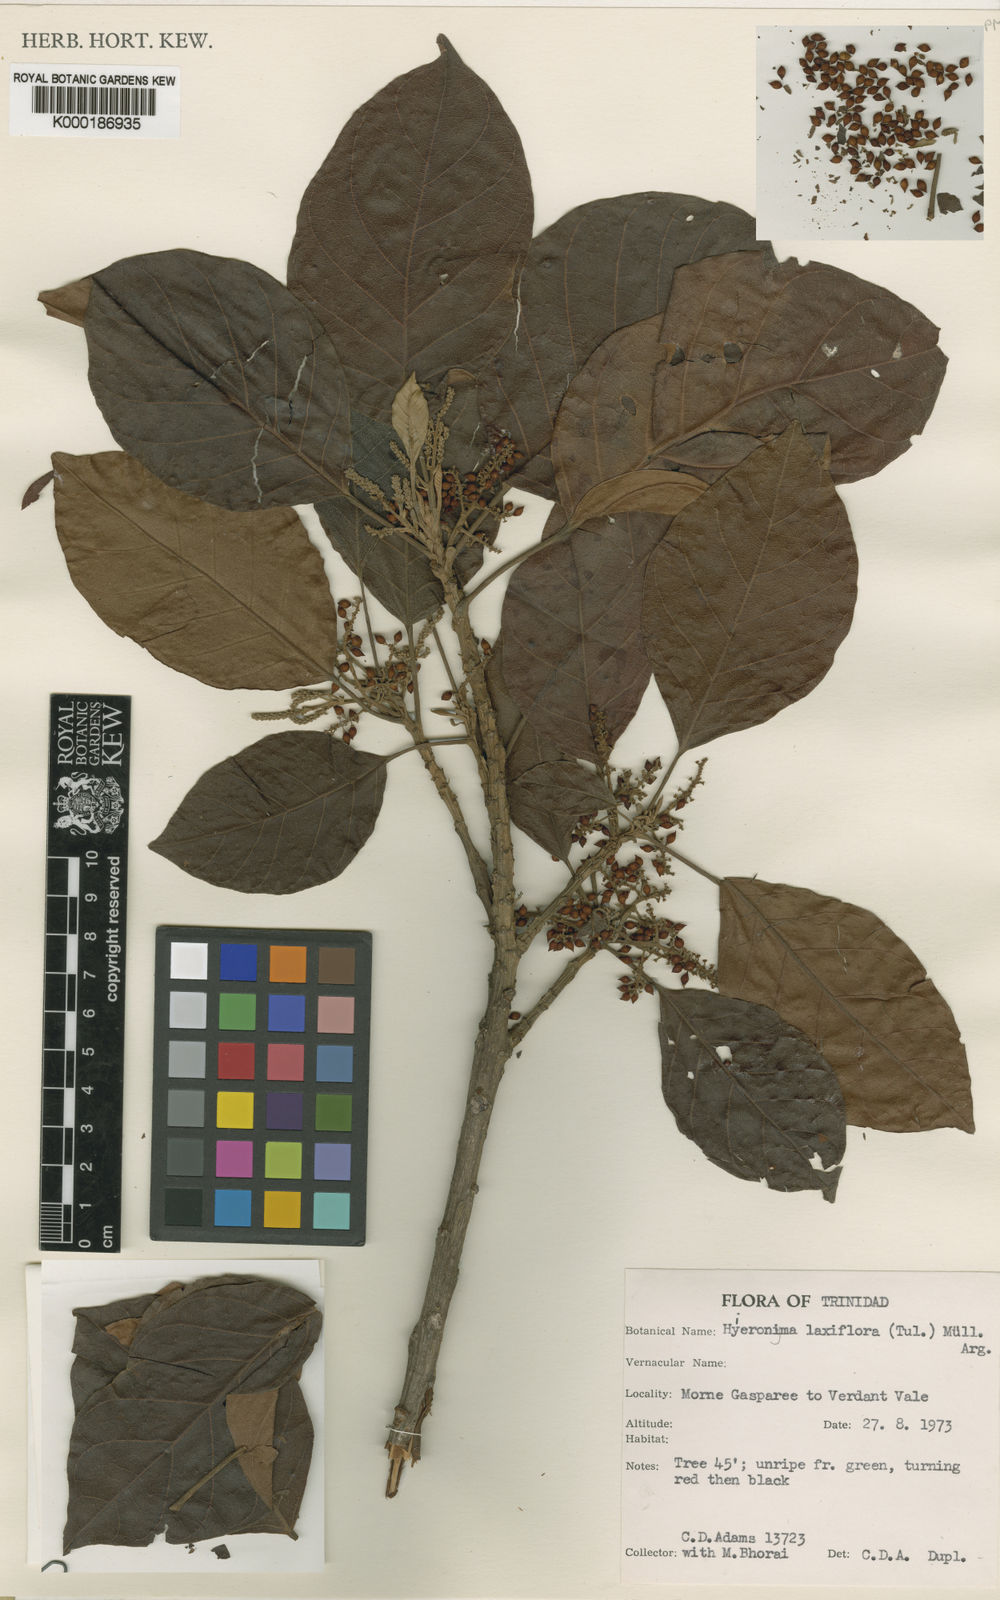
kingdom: Plantae
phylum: Tracheophyta
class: Magnoliopsida
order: Malpighiales
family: Phyllanthaceae
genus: Hieronyma
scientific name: Hieronyma alchorneoides
